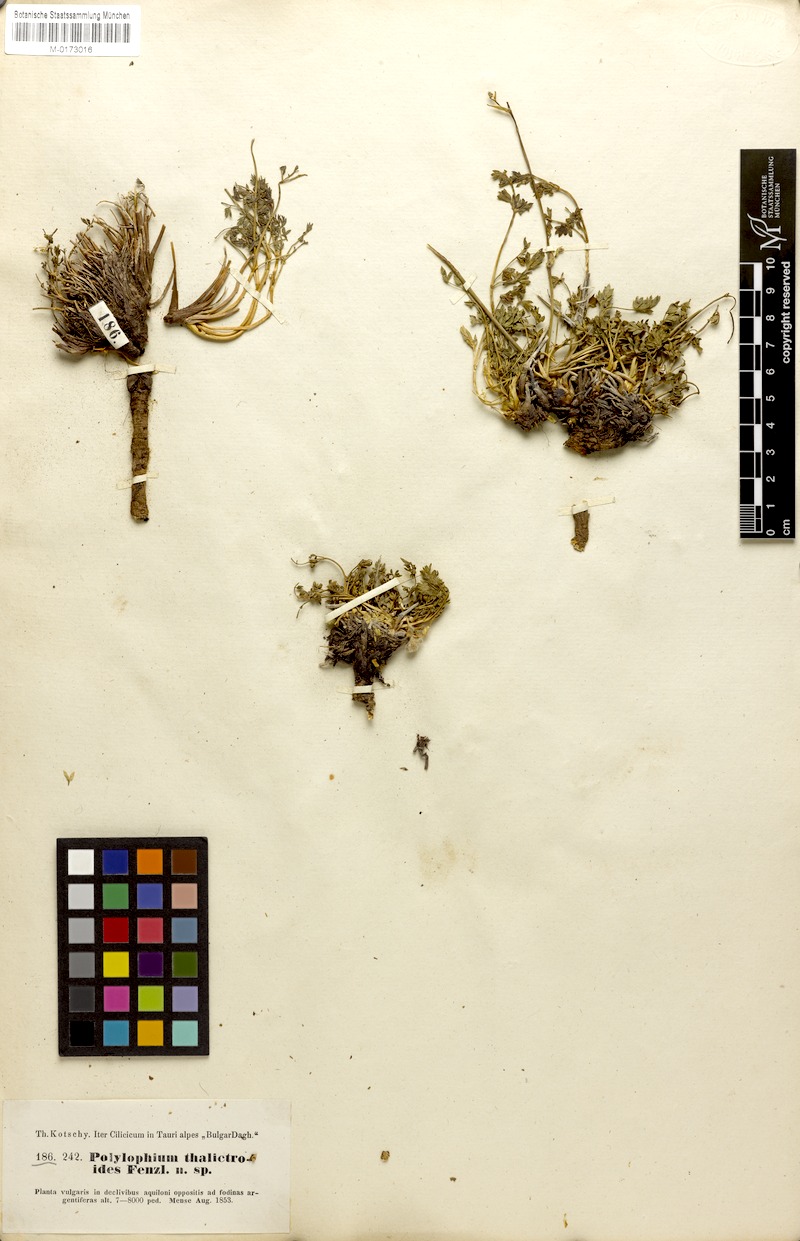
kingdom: Plantae
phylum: Tracheophyta
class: Magnoliopsida
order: Apiales
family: Apiaceae
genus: Ekimia
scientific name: Ekimia petrophila
